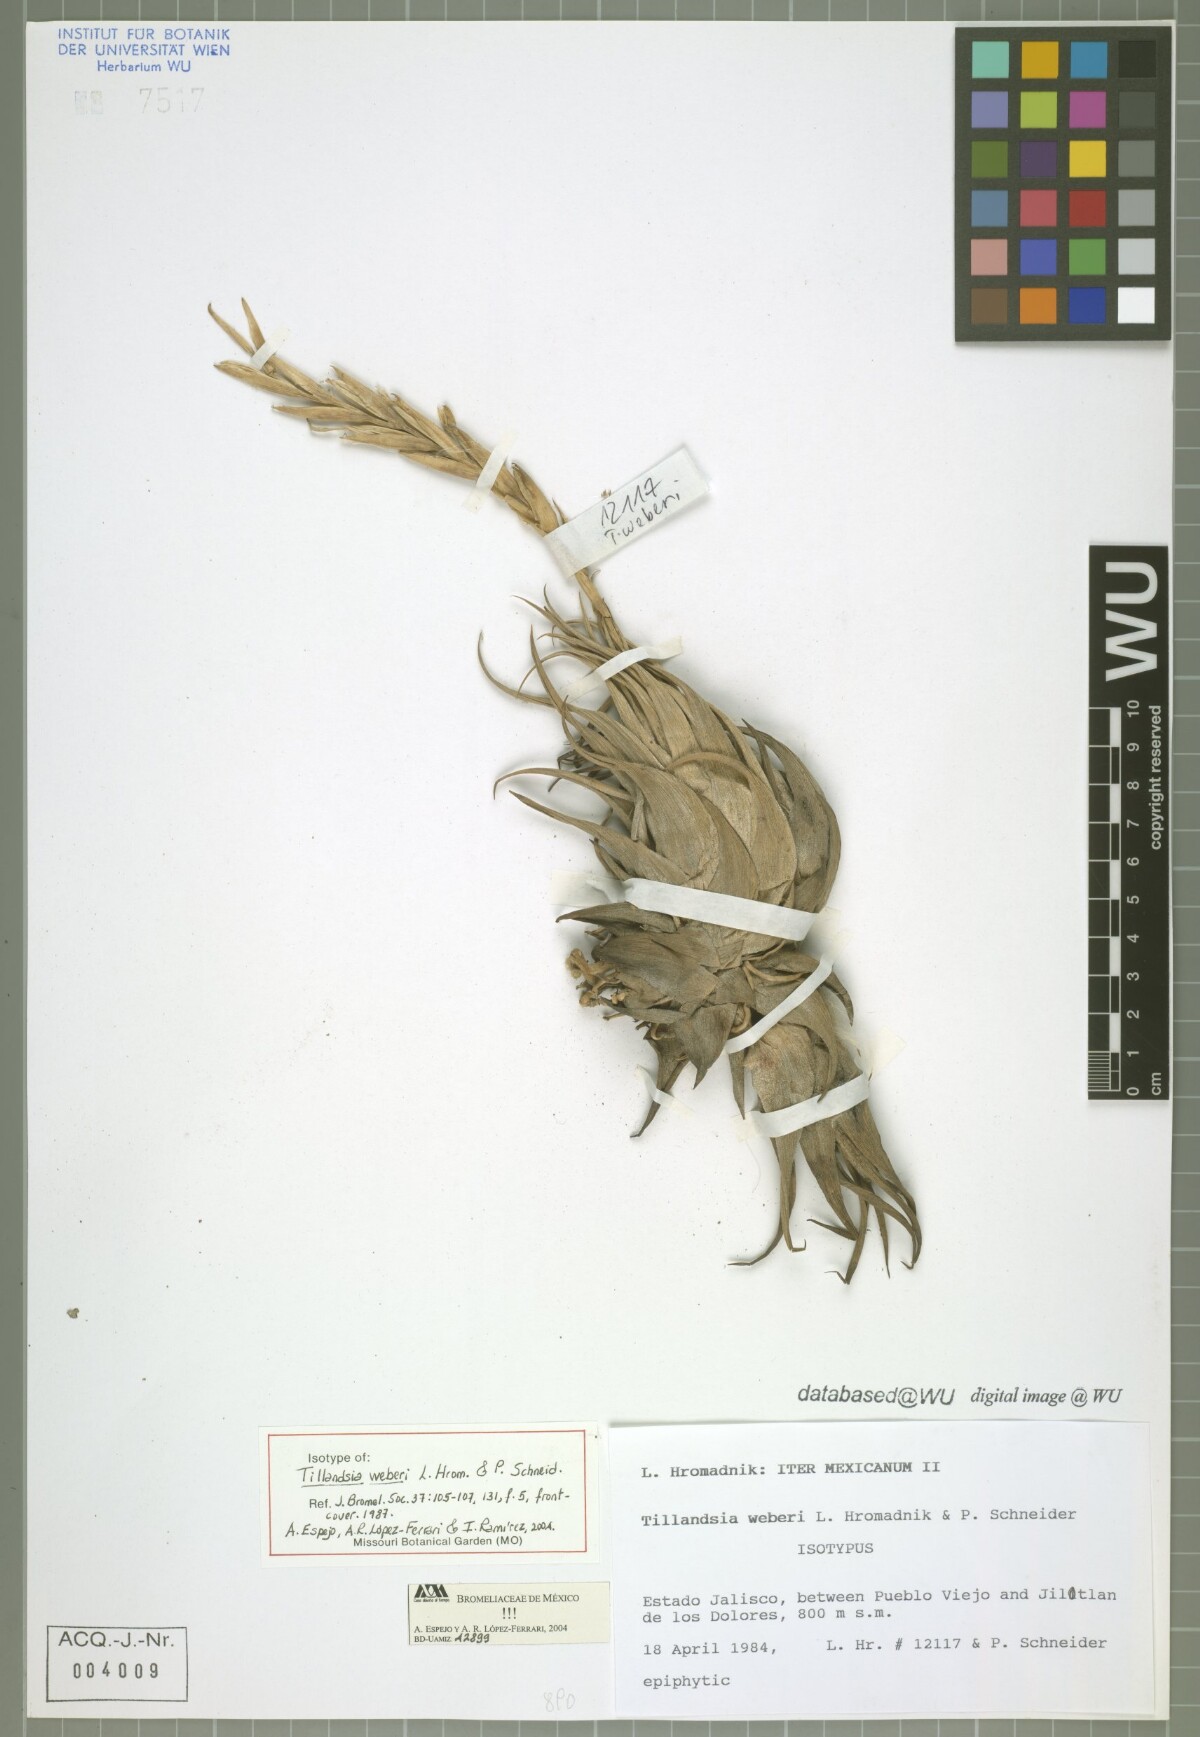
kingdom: Plantae
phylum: Tracheophyta
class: Liliopsida
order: Poales
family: Bromeliaceae
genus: Tillandsia
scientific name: Tillandsia weberi
